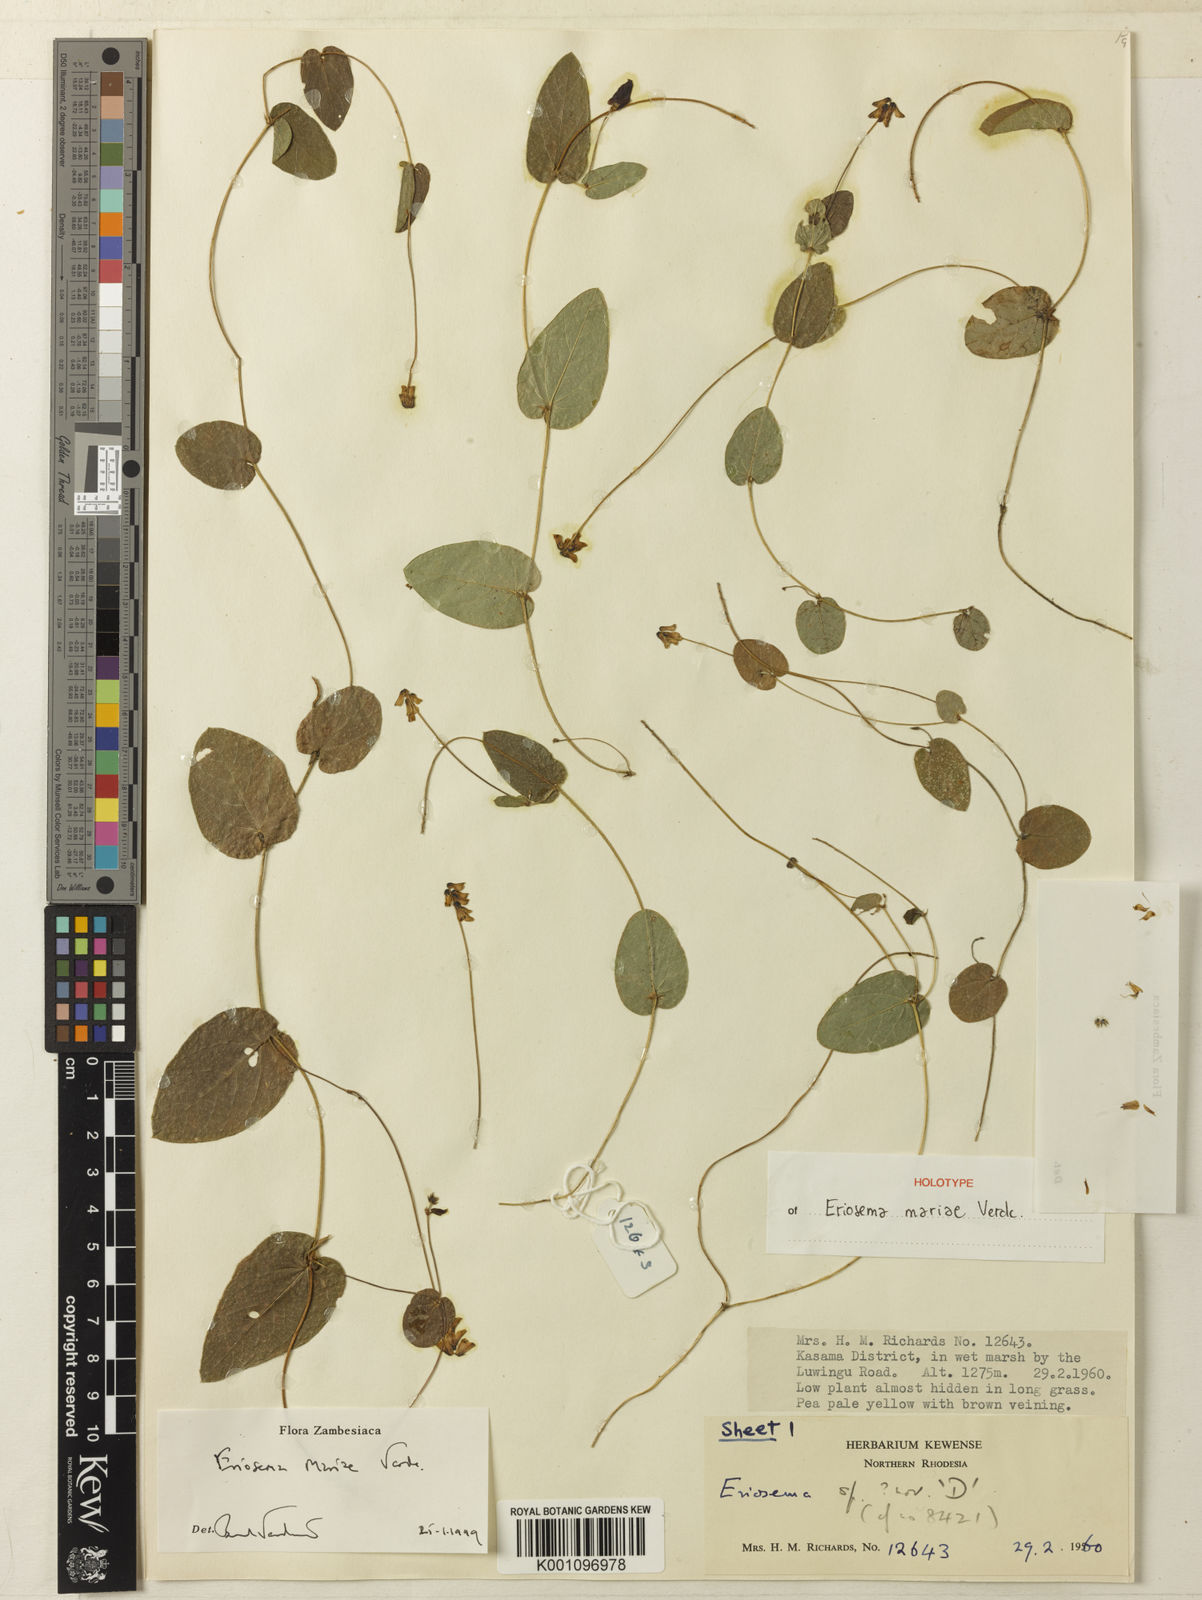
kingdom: Plantae
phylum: Tracheophyta
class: Magnoliopsida
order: Fabales
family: Fabaceae
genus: Eriosema
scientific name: Eriosema mariae
